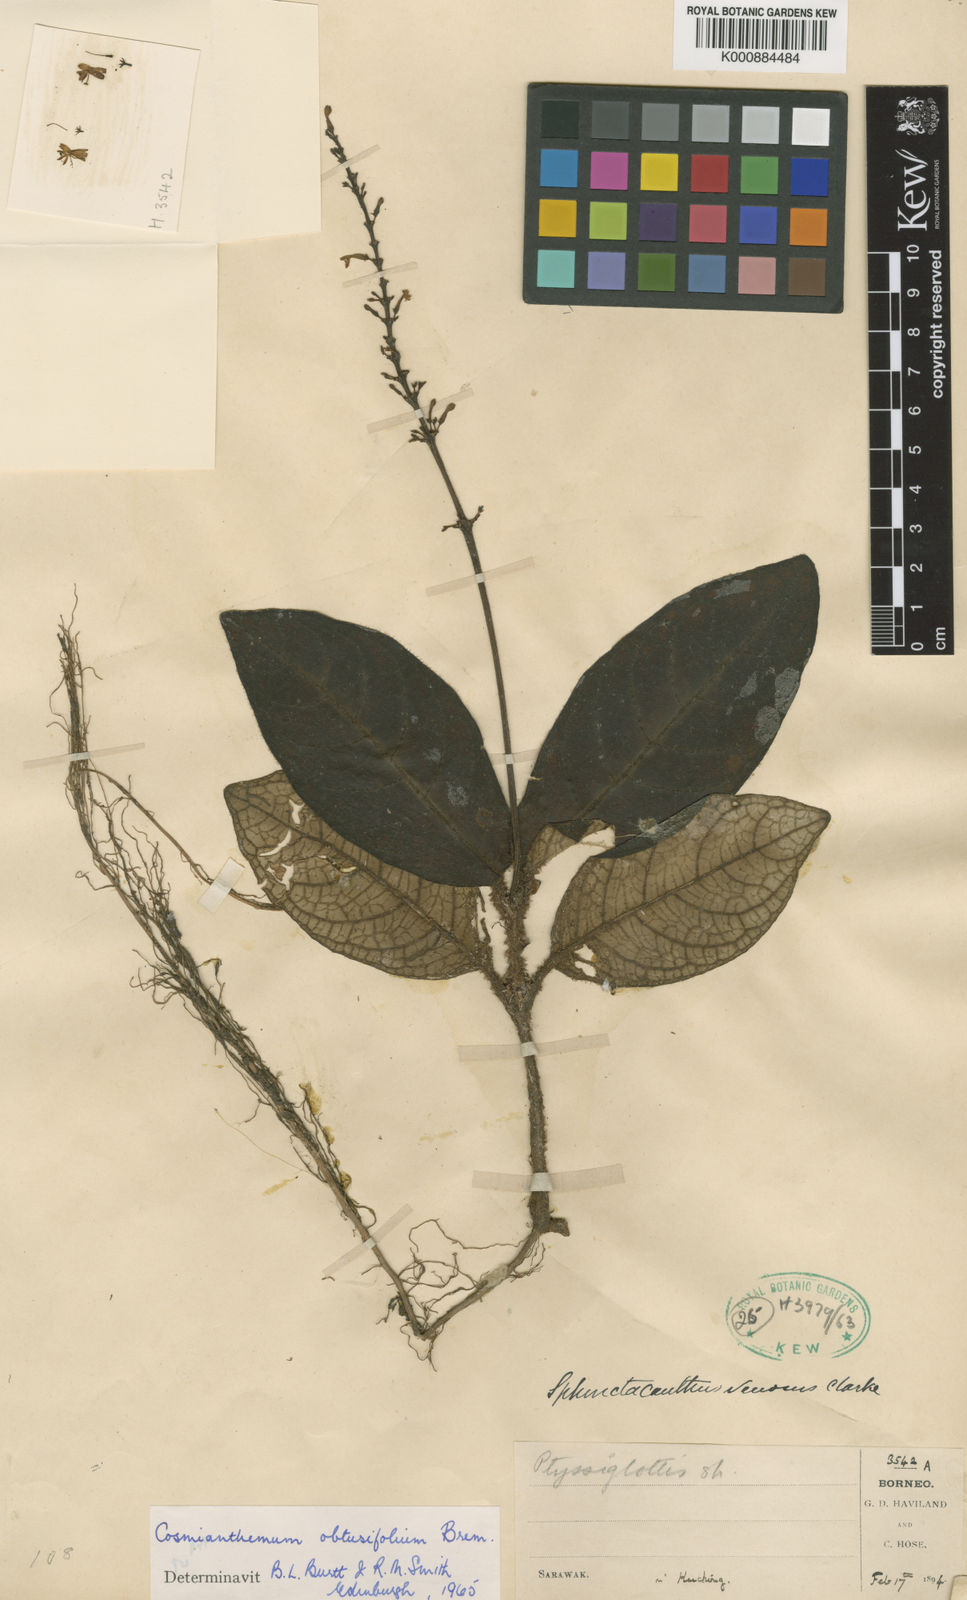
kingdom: Plantae
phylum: Tracheophyta
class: Magnoliopsida
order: Lamiales
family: Acanthaceae
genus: Cosmianthemum
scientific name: Cosmianthemum obtusifolium
